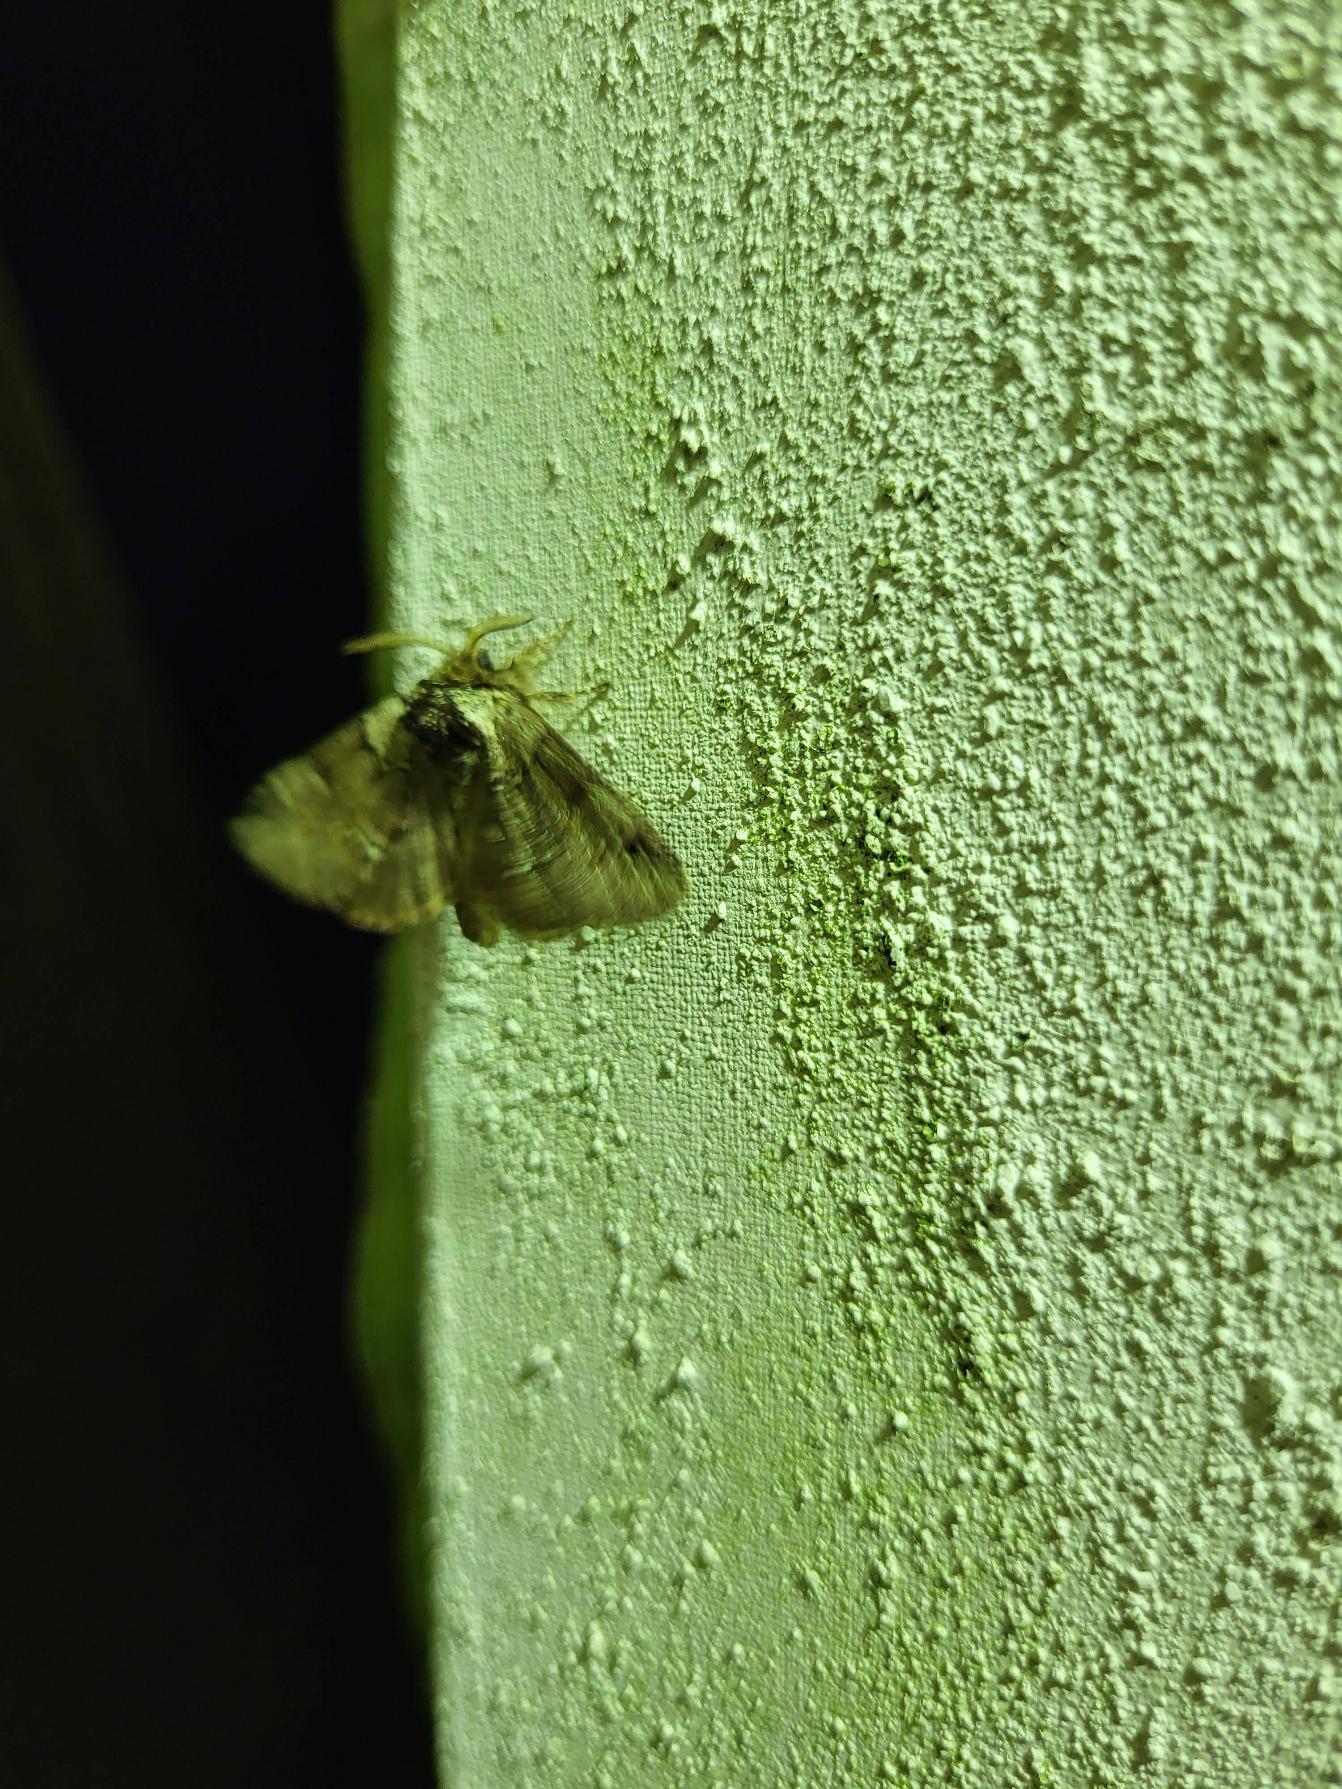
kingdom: Animalia
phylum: Arthropoda
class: Insecta
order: Lepidoptera
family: Notodontidae
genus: Drymonia
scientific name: Drymonia obliterata
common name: Bøgeskovspinder
